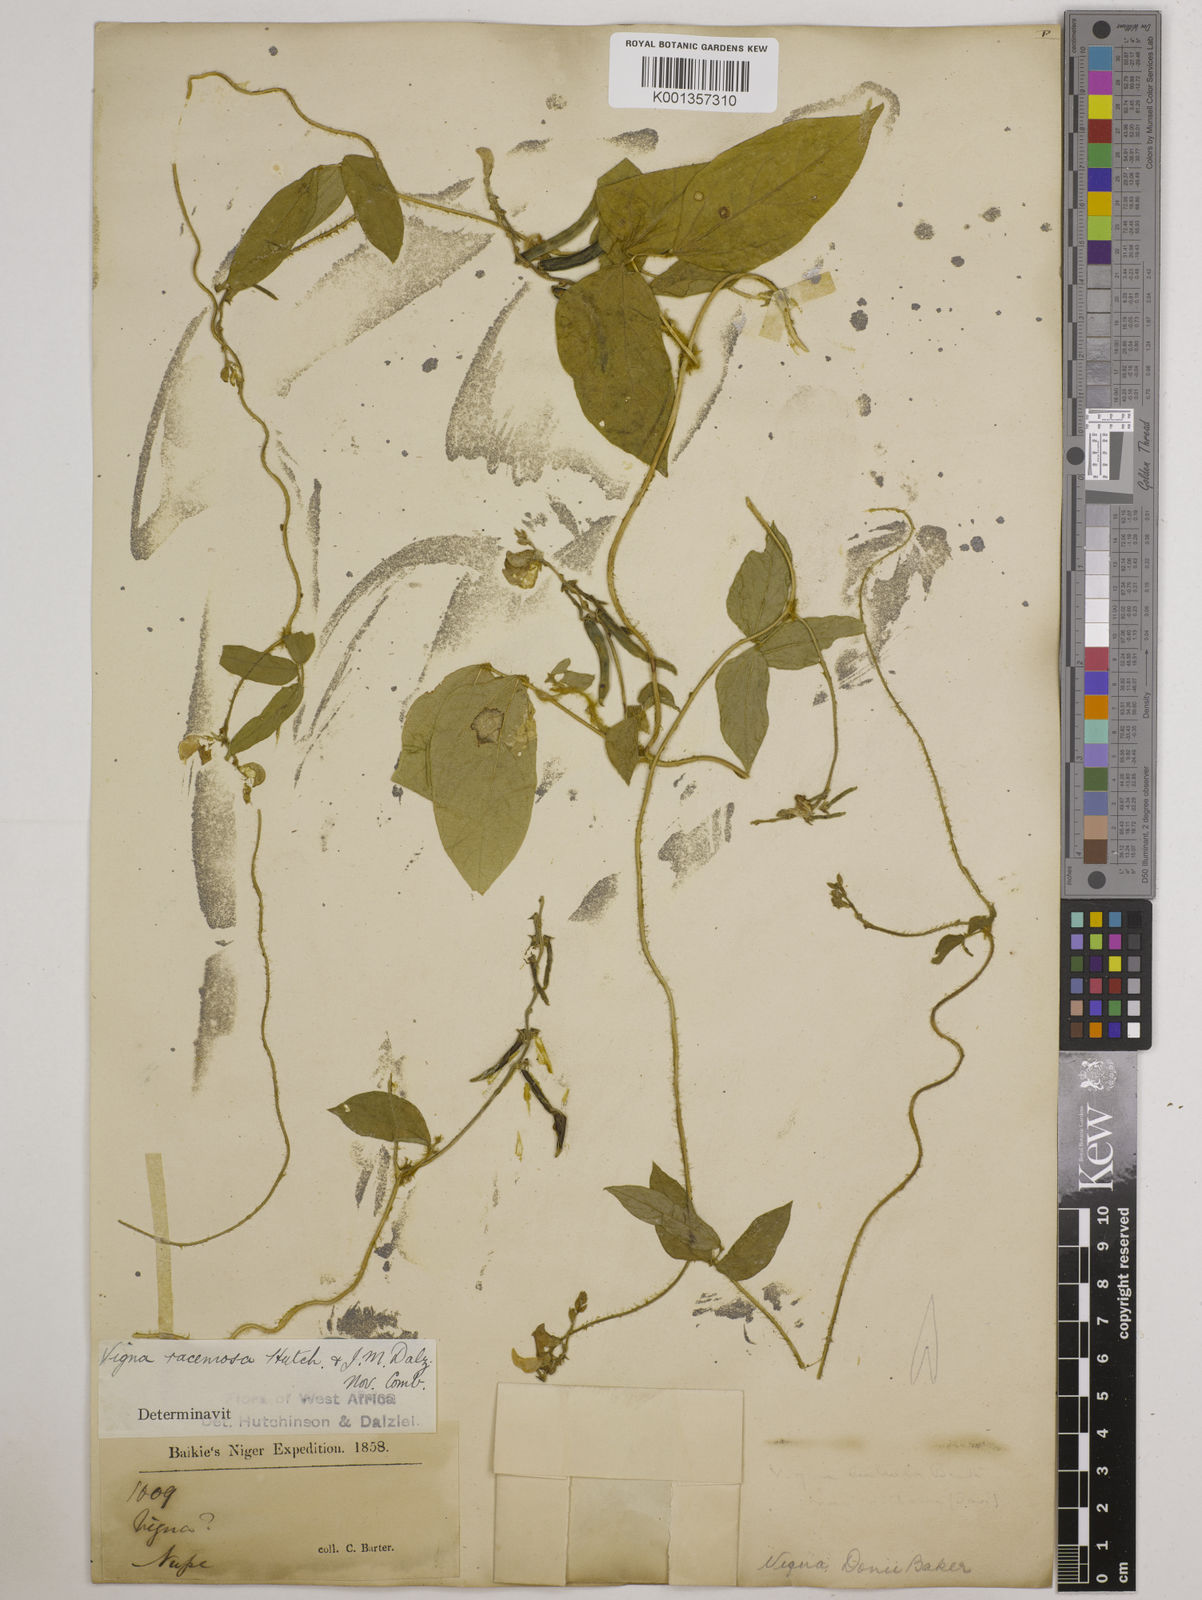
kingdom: Plantae
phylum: Tracheophyta
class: Magnoliopsida
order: Fabales
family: Fabaceae
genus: Vigna
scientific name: Vigna racemosa
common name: Beans not eaten
